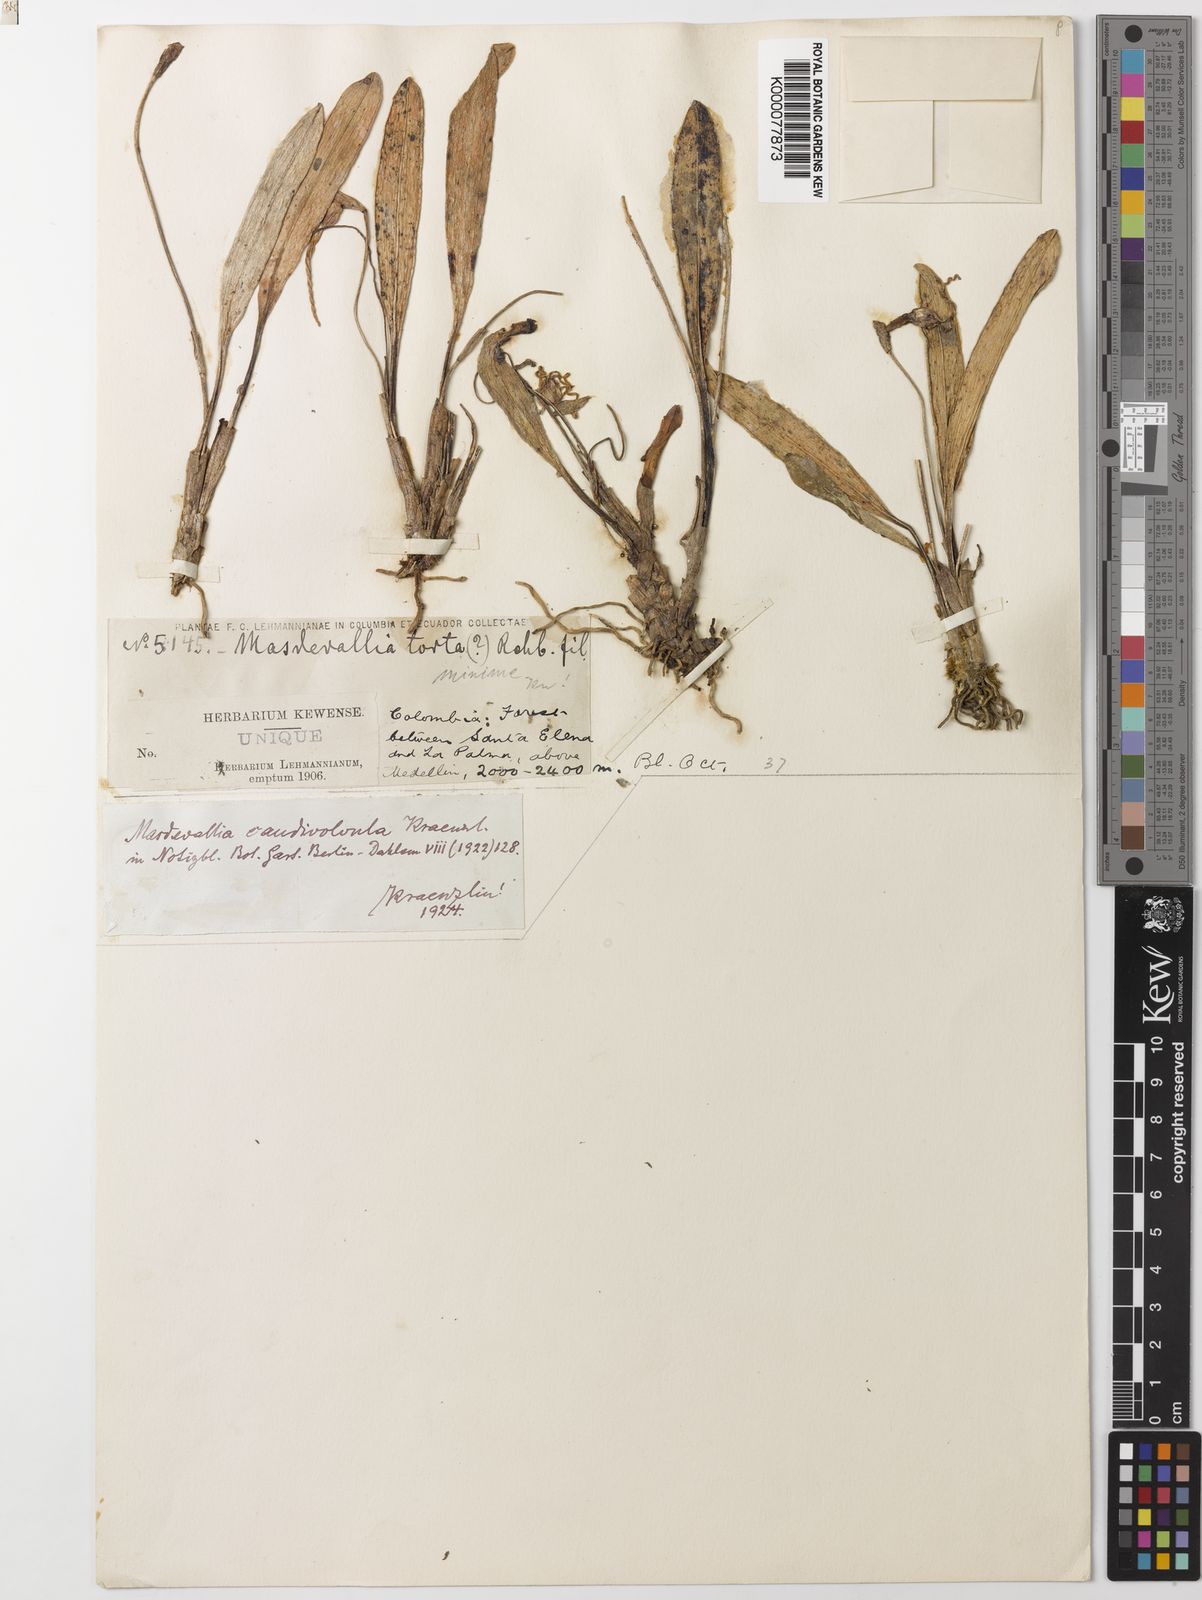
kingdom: Plantae
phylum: Tracheophyta
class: Liliopsida
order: Asparagales
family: Orchidaceae
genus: Masdevallia
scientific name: Masdevallia
